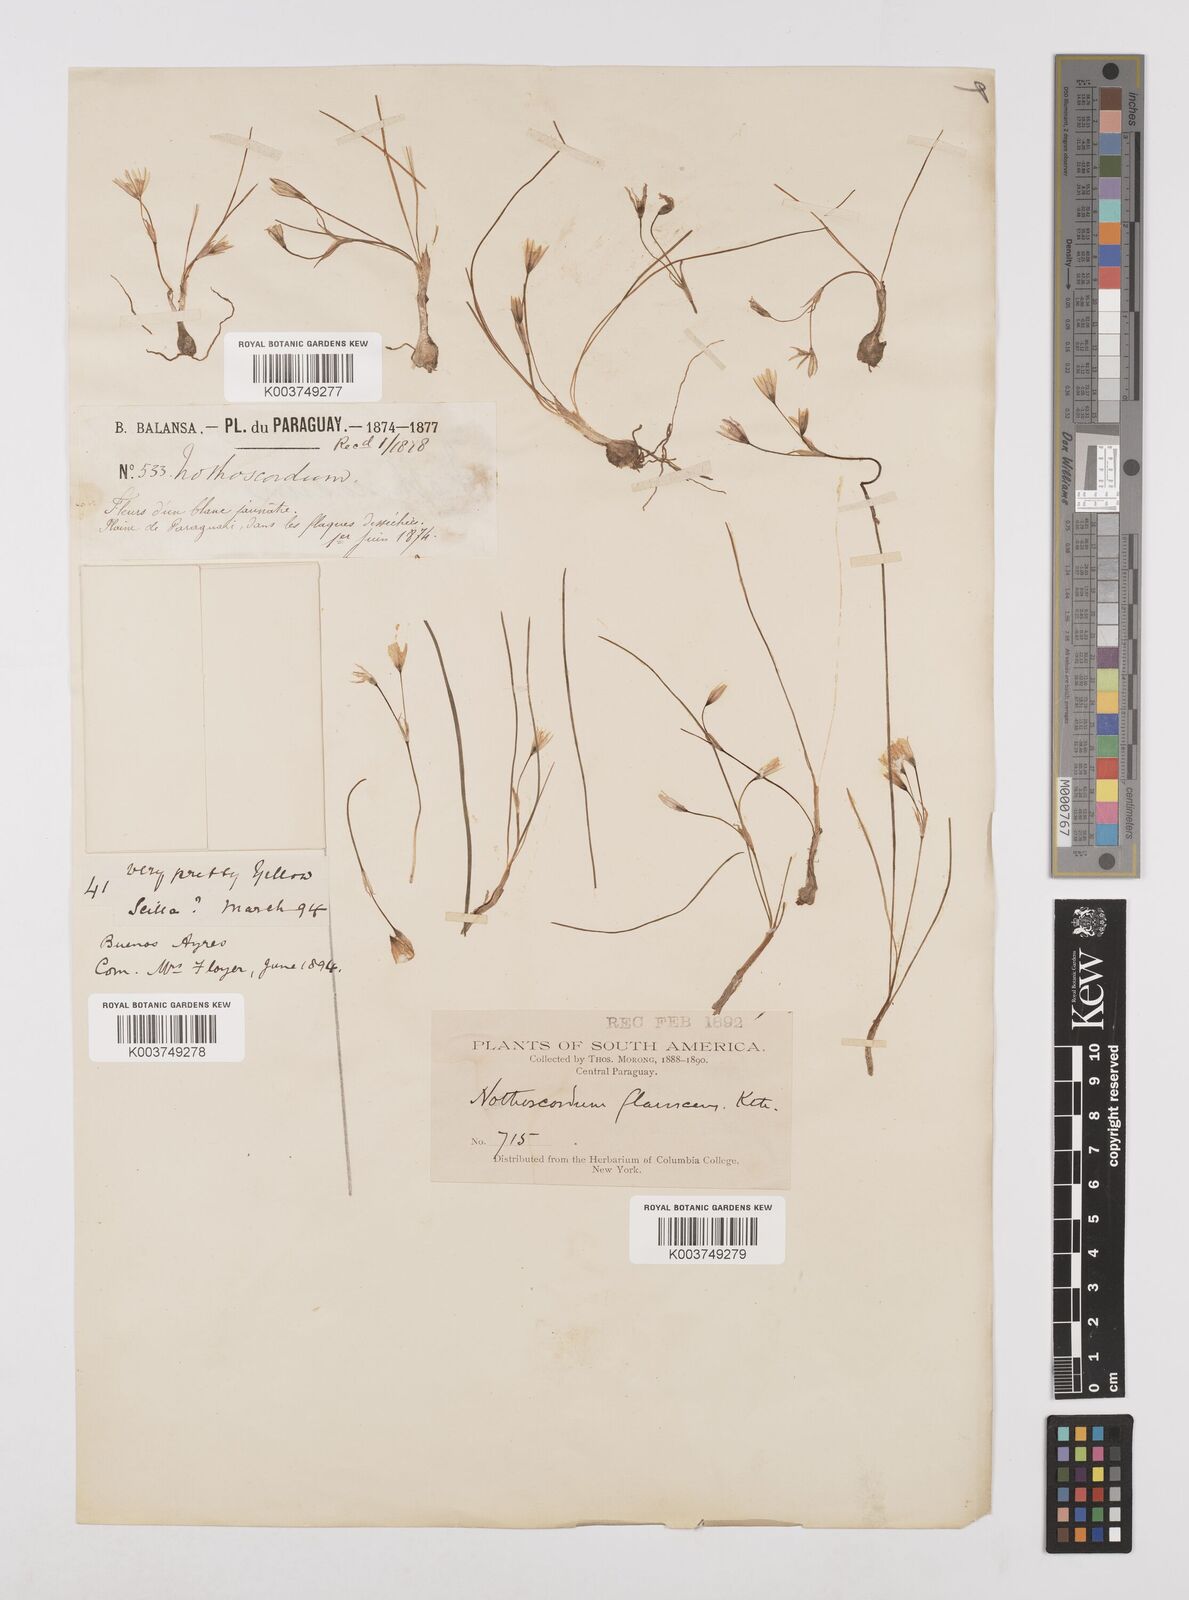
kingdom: Plantae
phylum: Tracheophyta
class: Liliopsida
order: Asparagales
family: Amaryllidaceae
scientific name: Amaryllidaceae
